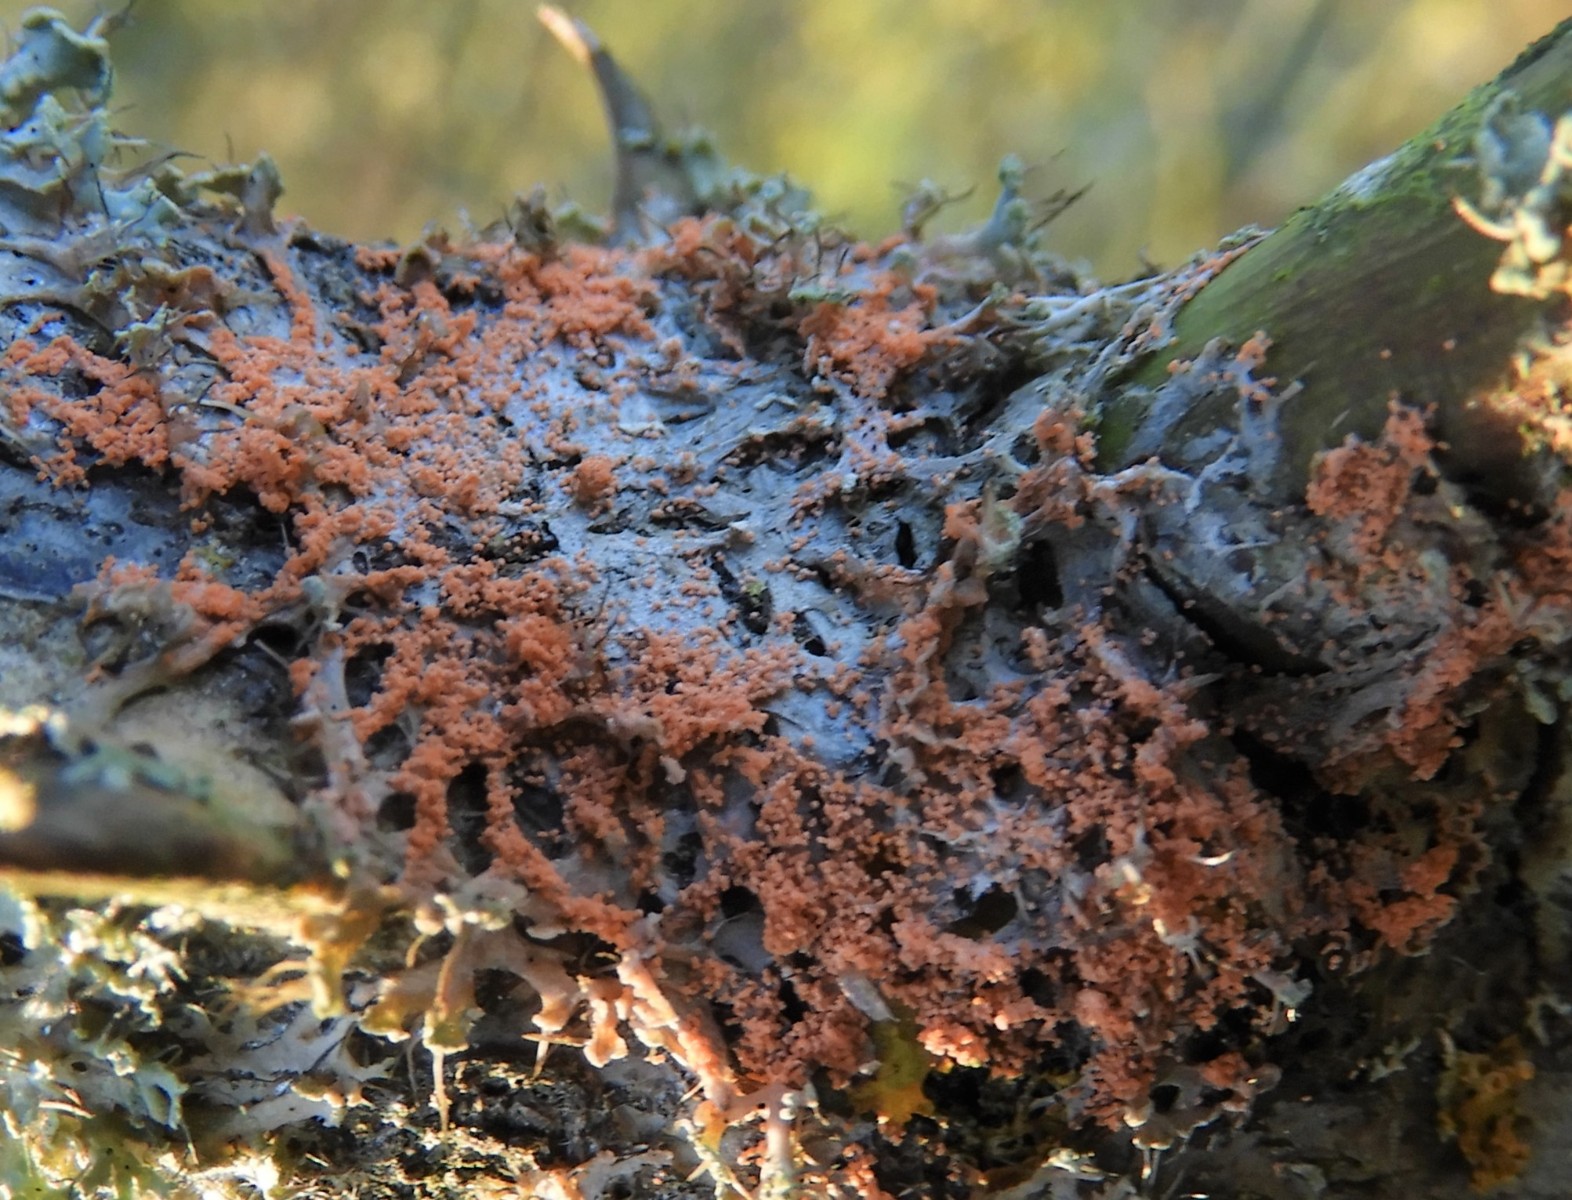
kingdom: Fungi
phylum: Basidiomycota
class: Agaricomycetes
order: Corticiales
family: Corticiaceae
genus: Erythricium
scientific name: Erythricium aurantiacum
